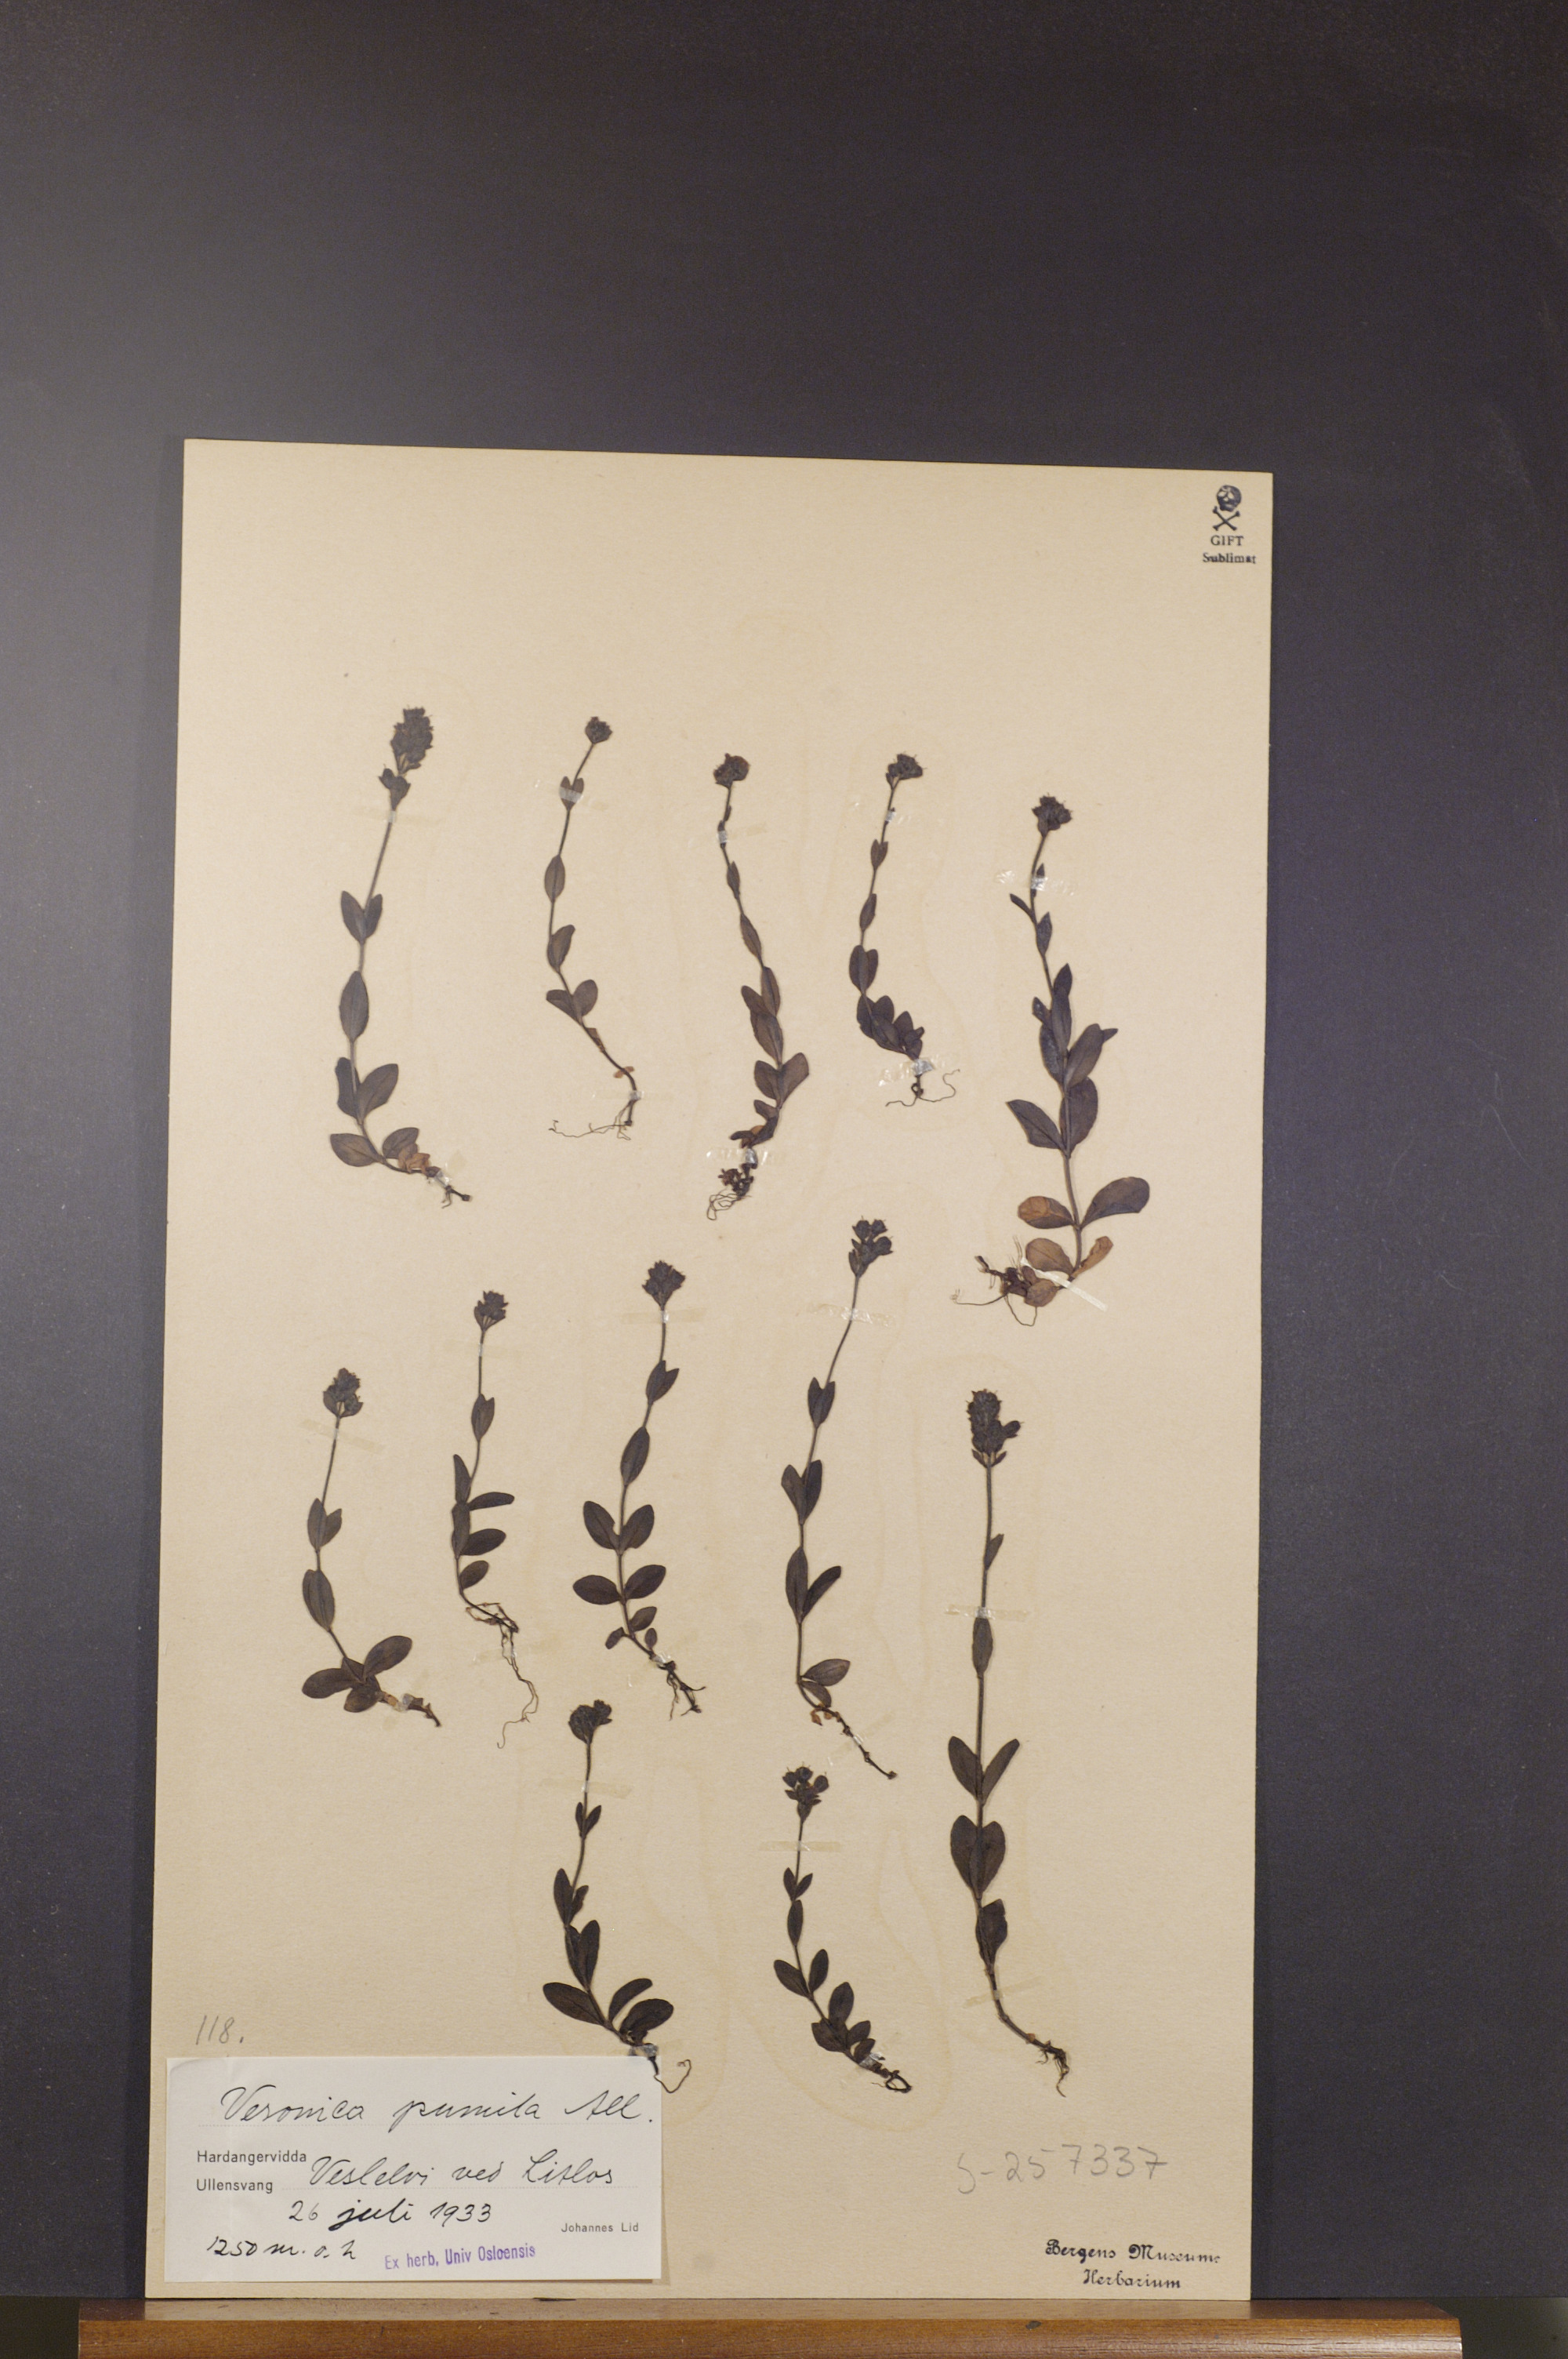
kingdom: Plantae
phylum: Tracheophyta
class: Magnoliopsida
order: Lamiales
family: Plantaginaceae
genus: Veronica
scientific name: Veronica alpina
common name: Alpine speedwell
